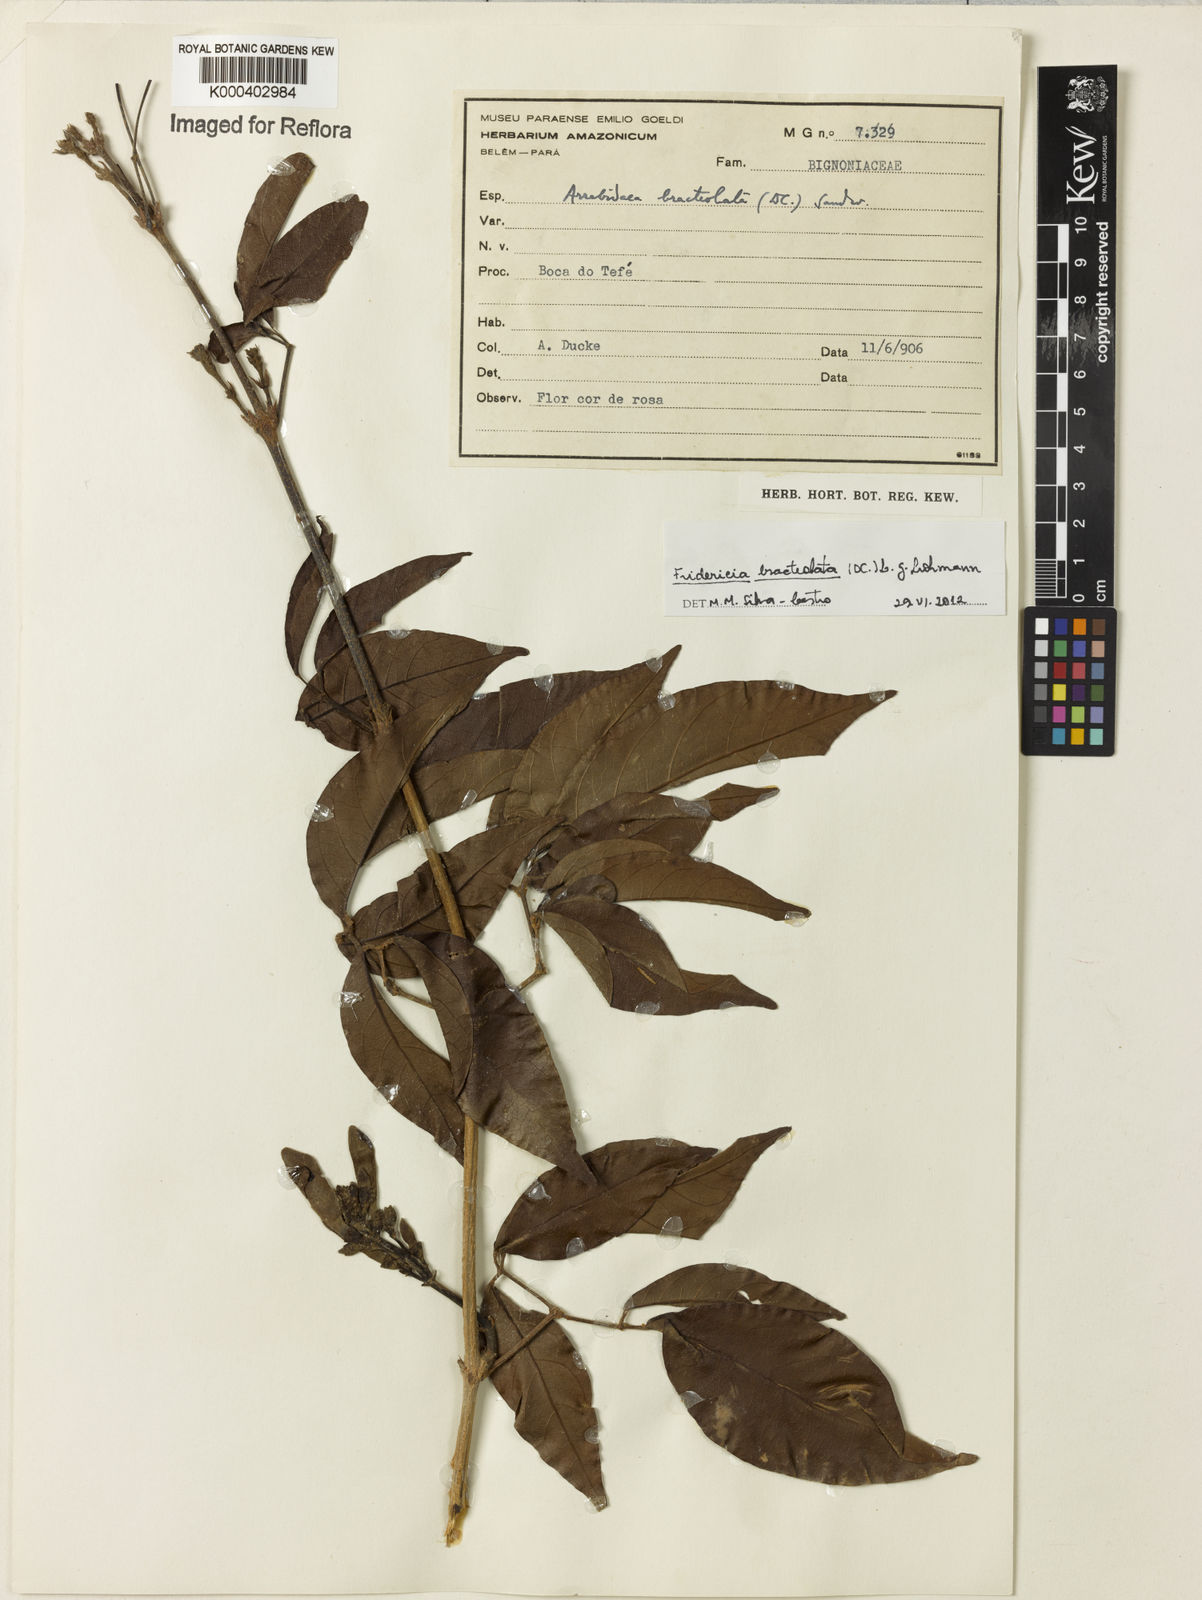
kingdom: Plantae
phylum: Tracheophyta
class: Magnoliopsida
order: Lamiales
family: Bignoniaceae
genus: Cuspidaria
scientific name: Cuspidaria bracteolata
